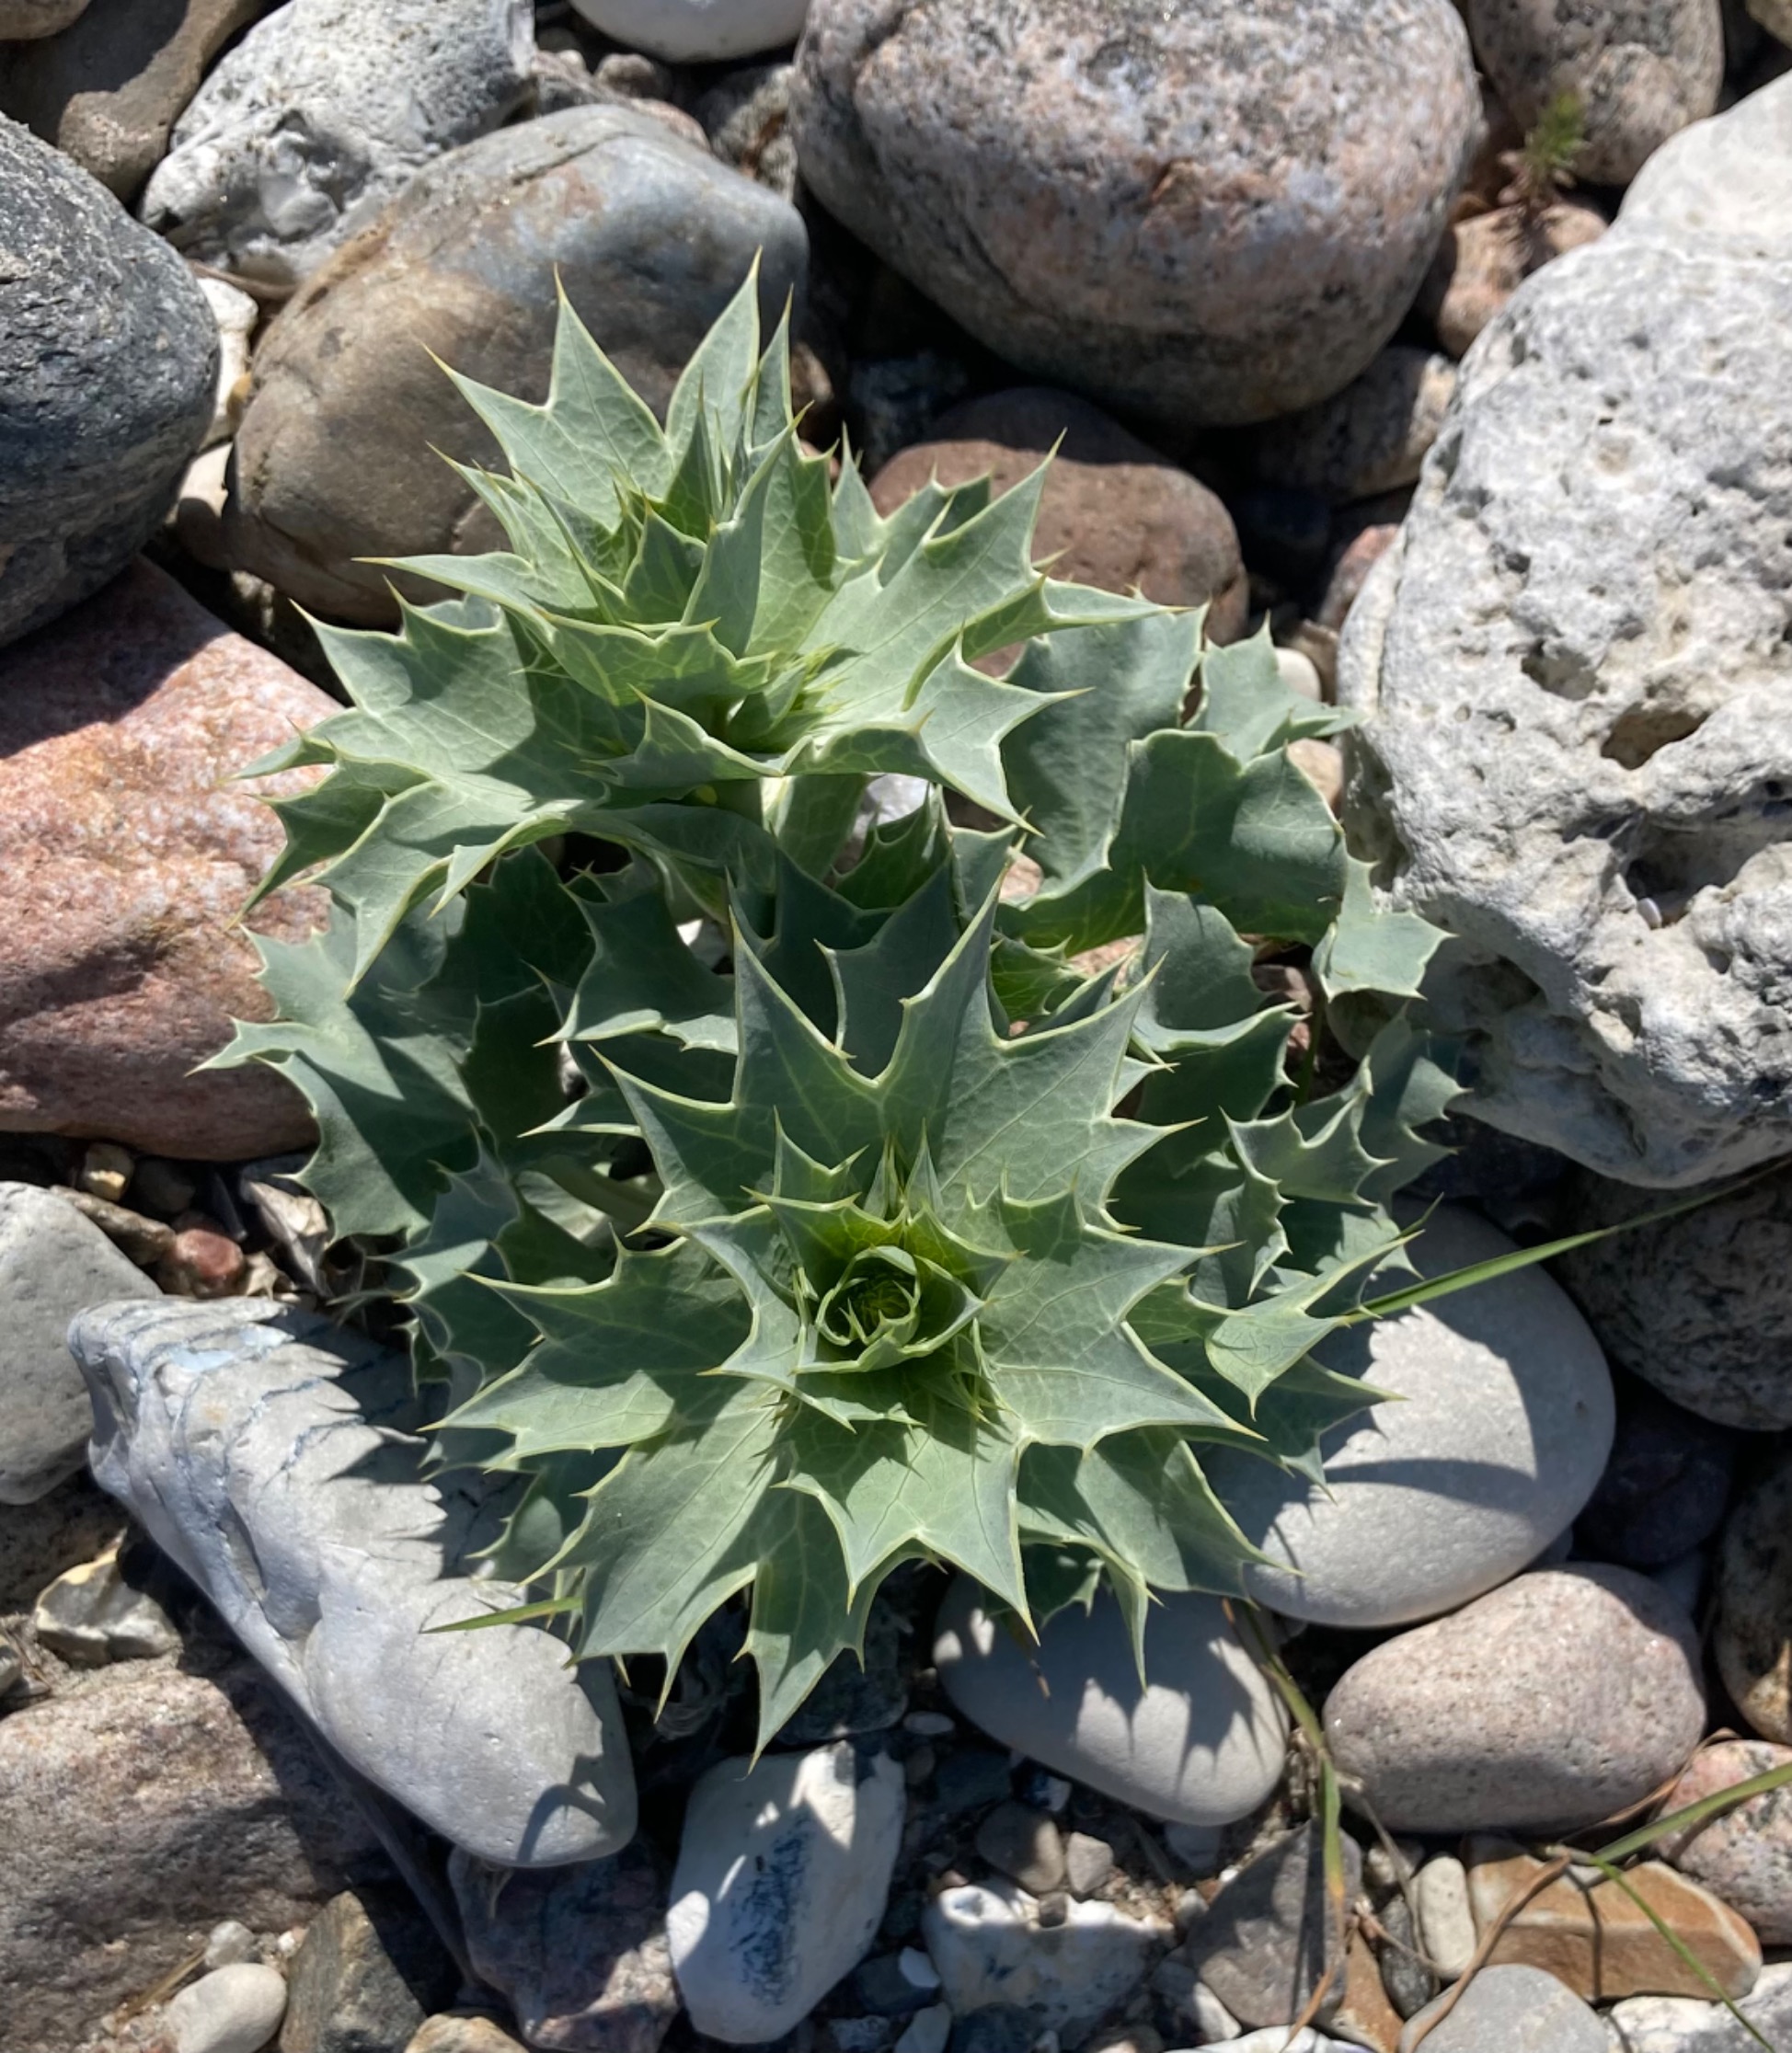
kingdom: Plantae
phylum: Tracheophyta
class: Magnoliopsida
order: Apiales
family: Apiaceae
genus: Eryngium
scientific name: Eryngium maritimum
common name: Strand-mandstro
